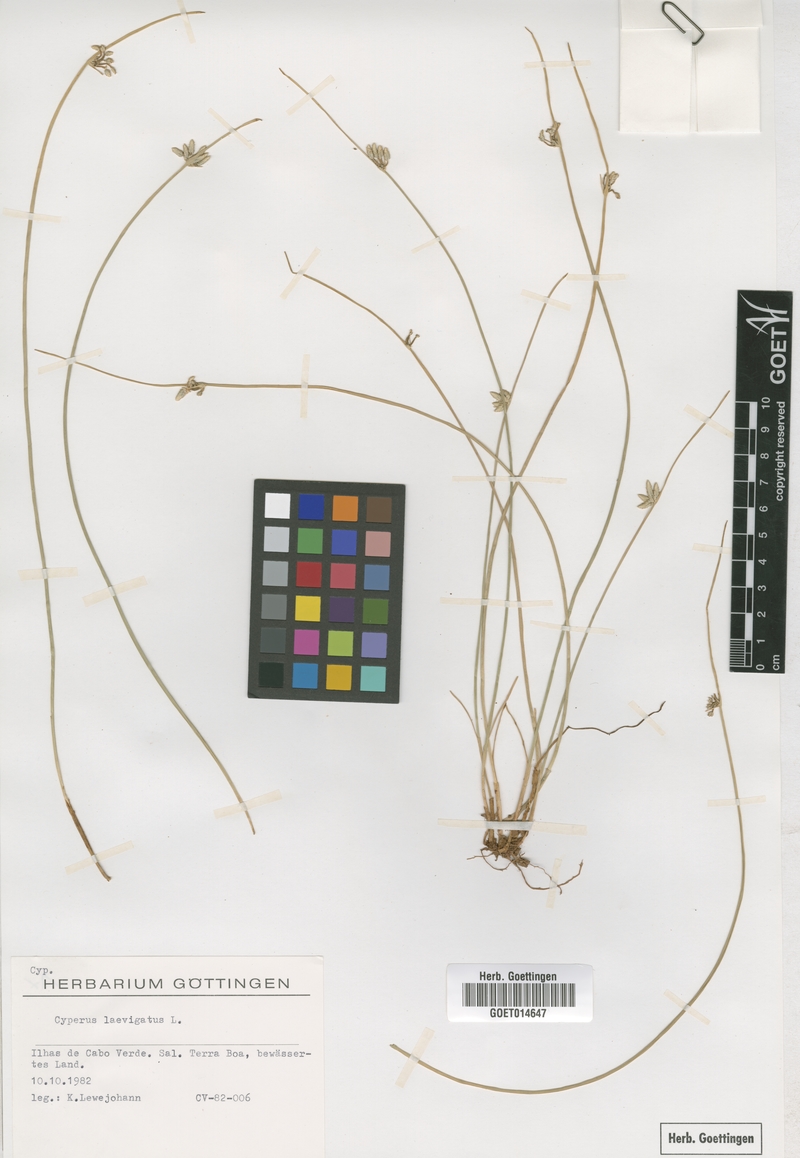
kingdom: Plantae
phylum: Tracheophyta
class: Liliopsida
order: Poales
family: Cyperaceae
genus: Cyperus
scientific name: Cyperus laevigatus
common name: Smooth flat sedge
